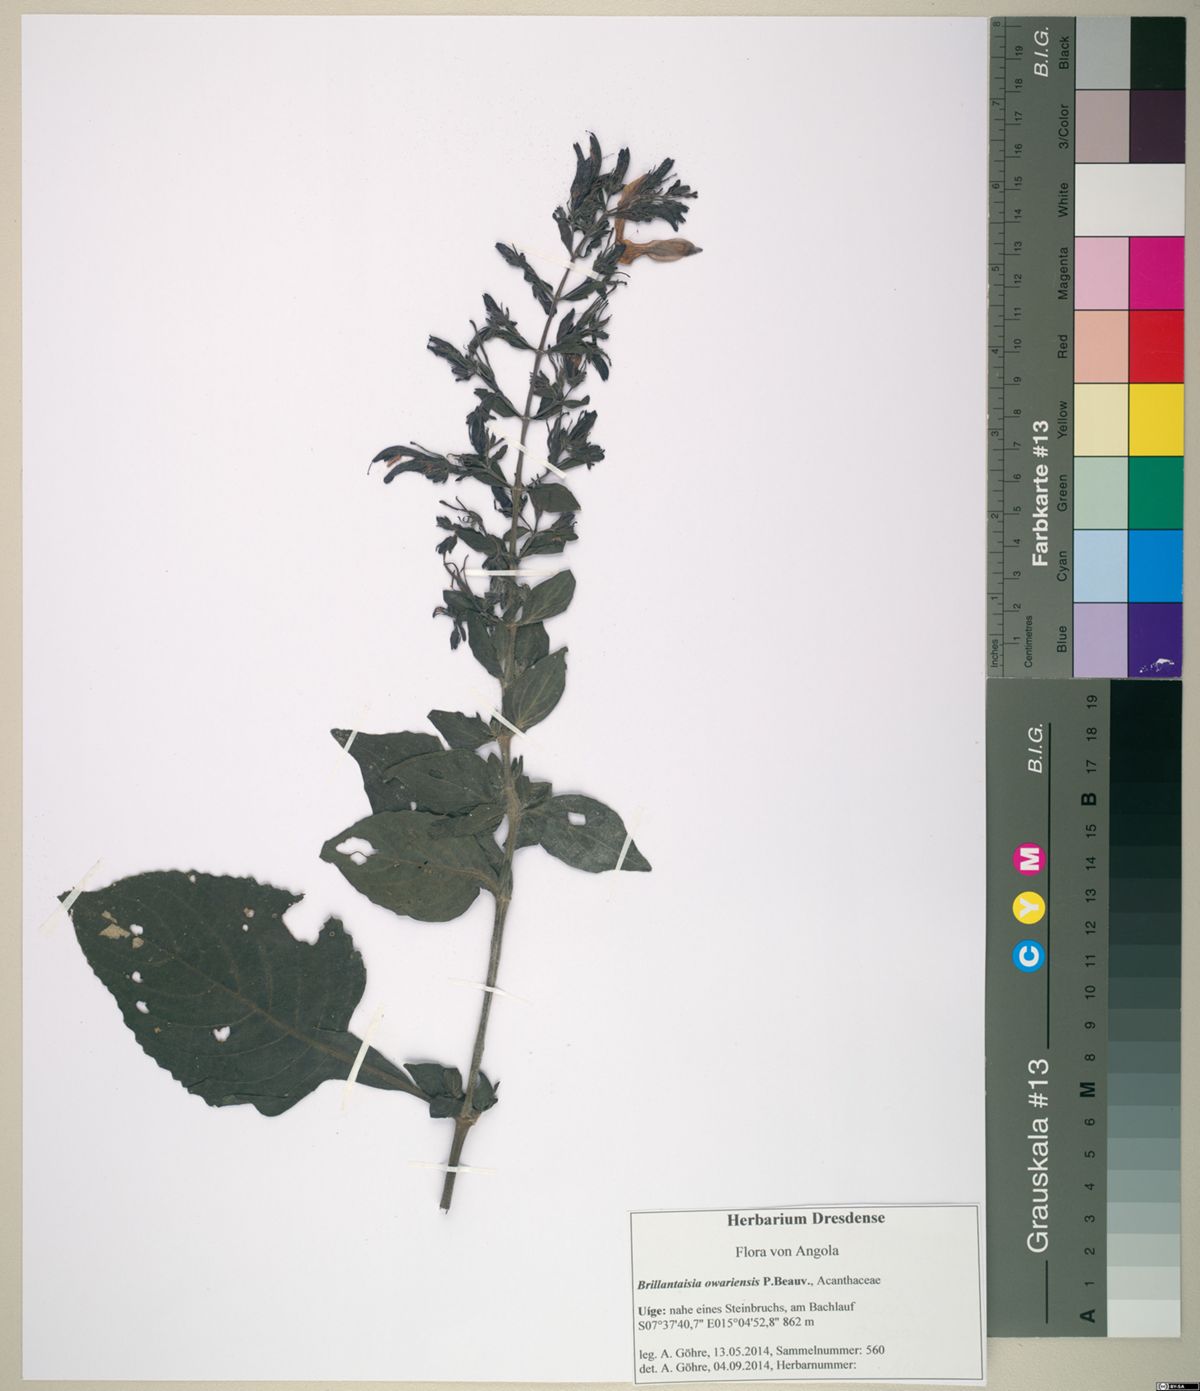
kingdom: Plantae
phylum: Tracheophyta
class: Magnoliopsida
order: Lamiales
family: Acanthaceae
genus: Brillantaisia
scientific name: Brillantaisia owariensis
